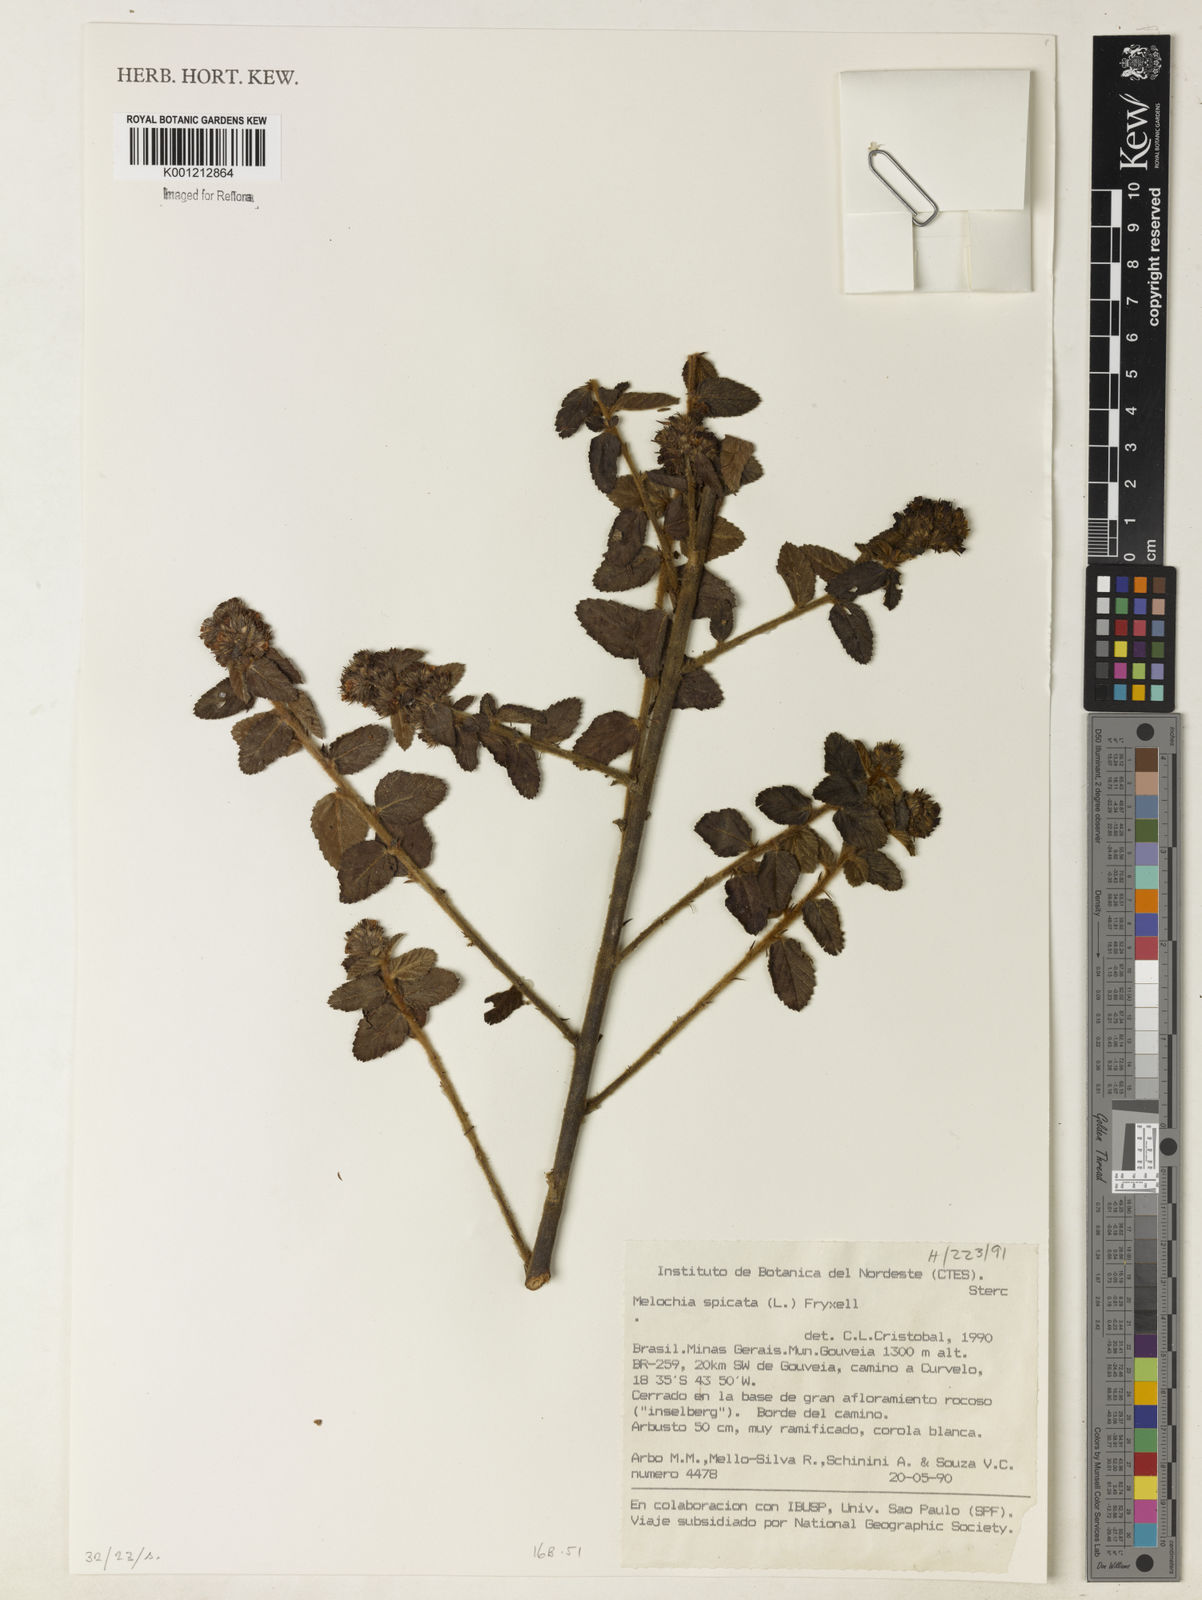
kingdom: Plantae
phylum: Tracheophyta
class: Magnoliopsida
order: Malvales
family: Malvaceae
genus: Melochia
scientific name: Melochia spicata
